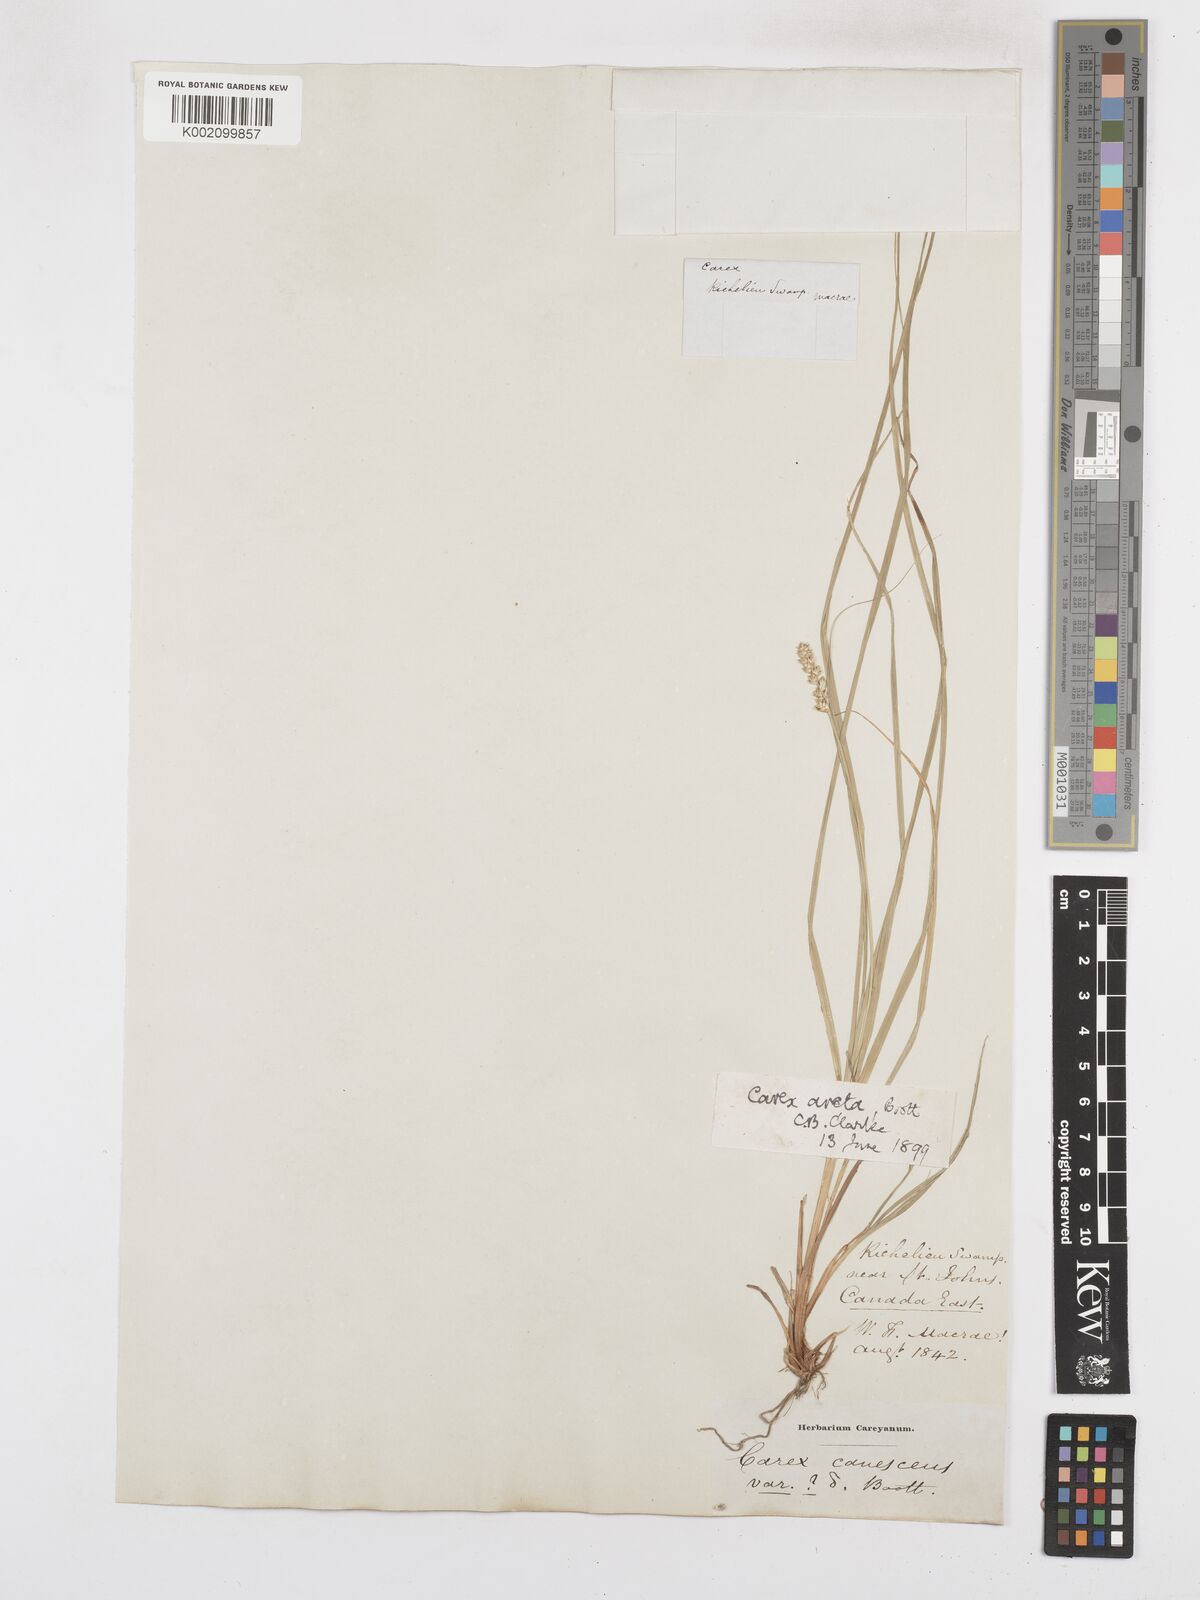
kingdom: Plantae
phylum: Tracheophyta
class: Liliopsida
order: Poales
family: Cyperaceae
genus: Carex
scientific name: Carex arcta
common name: Bear sedge
